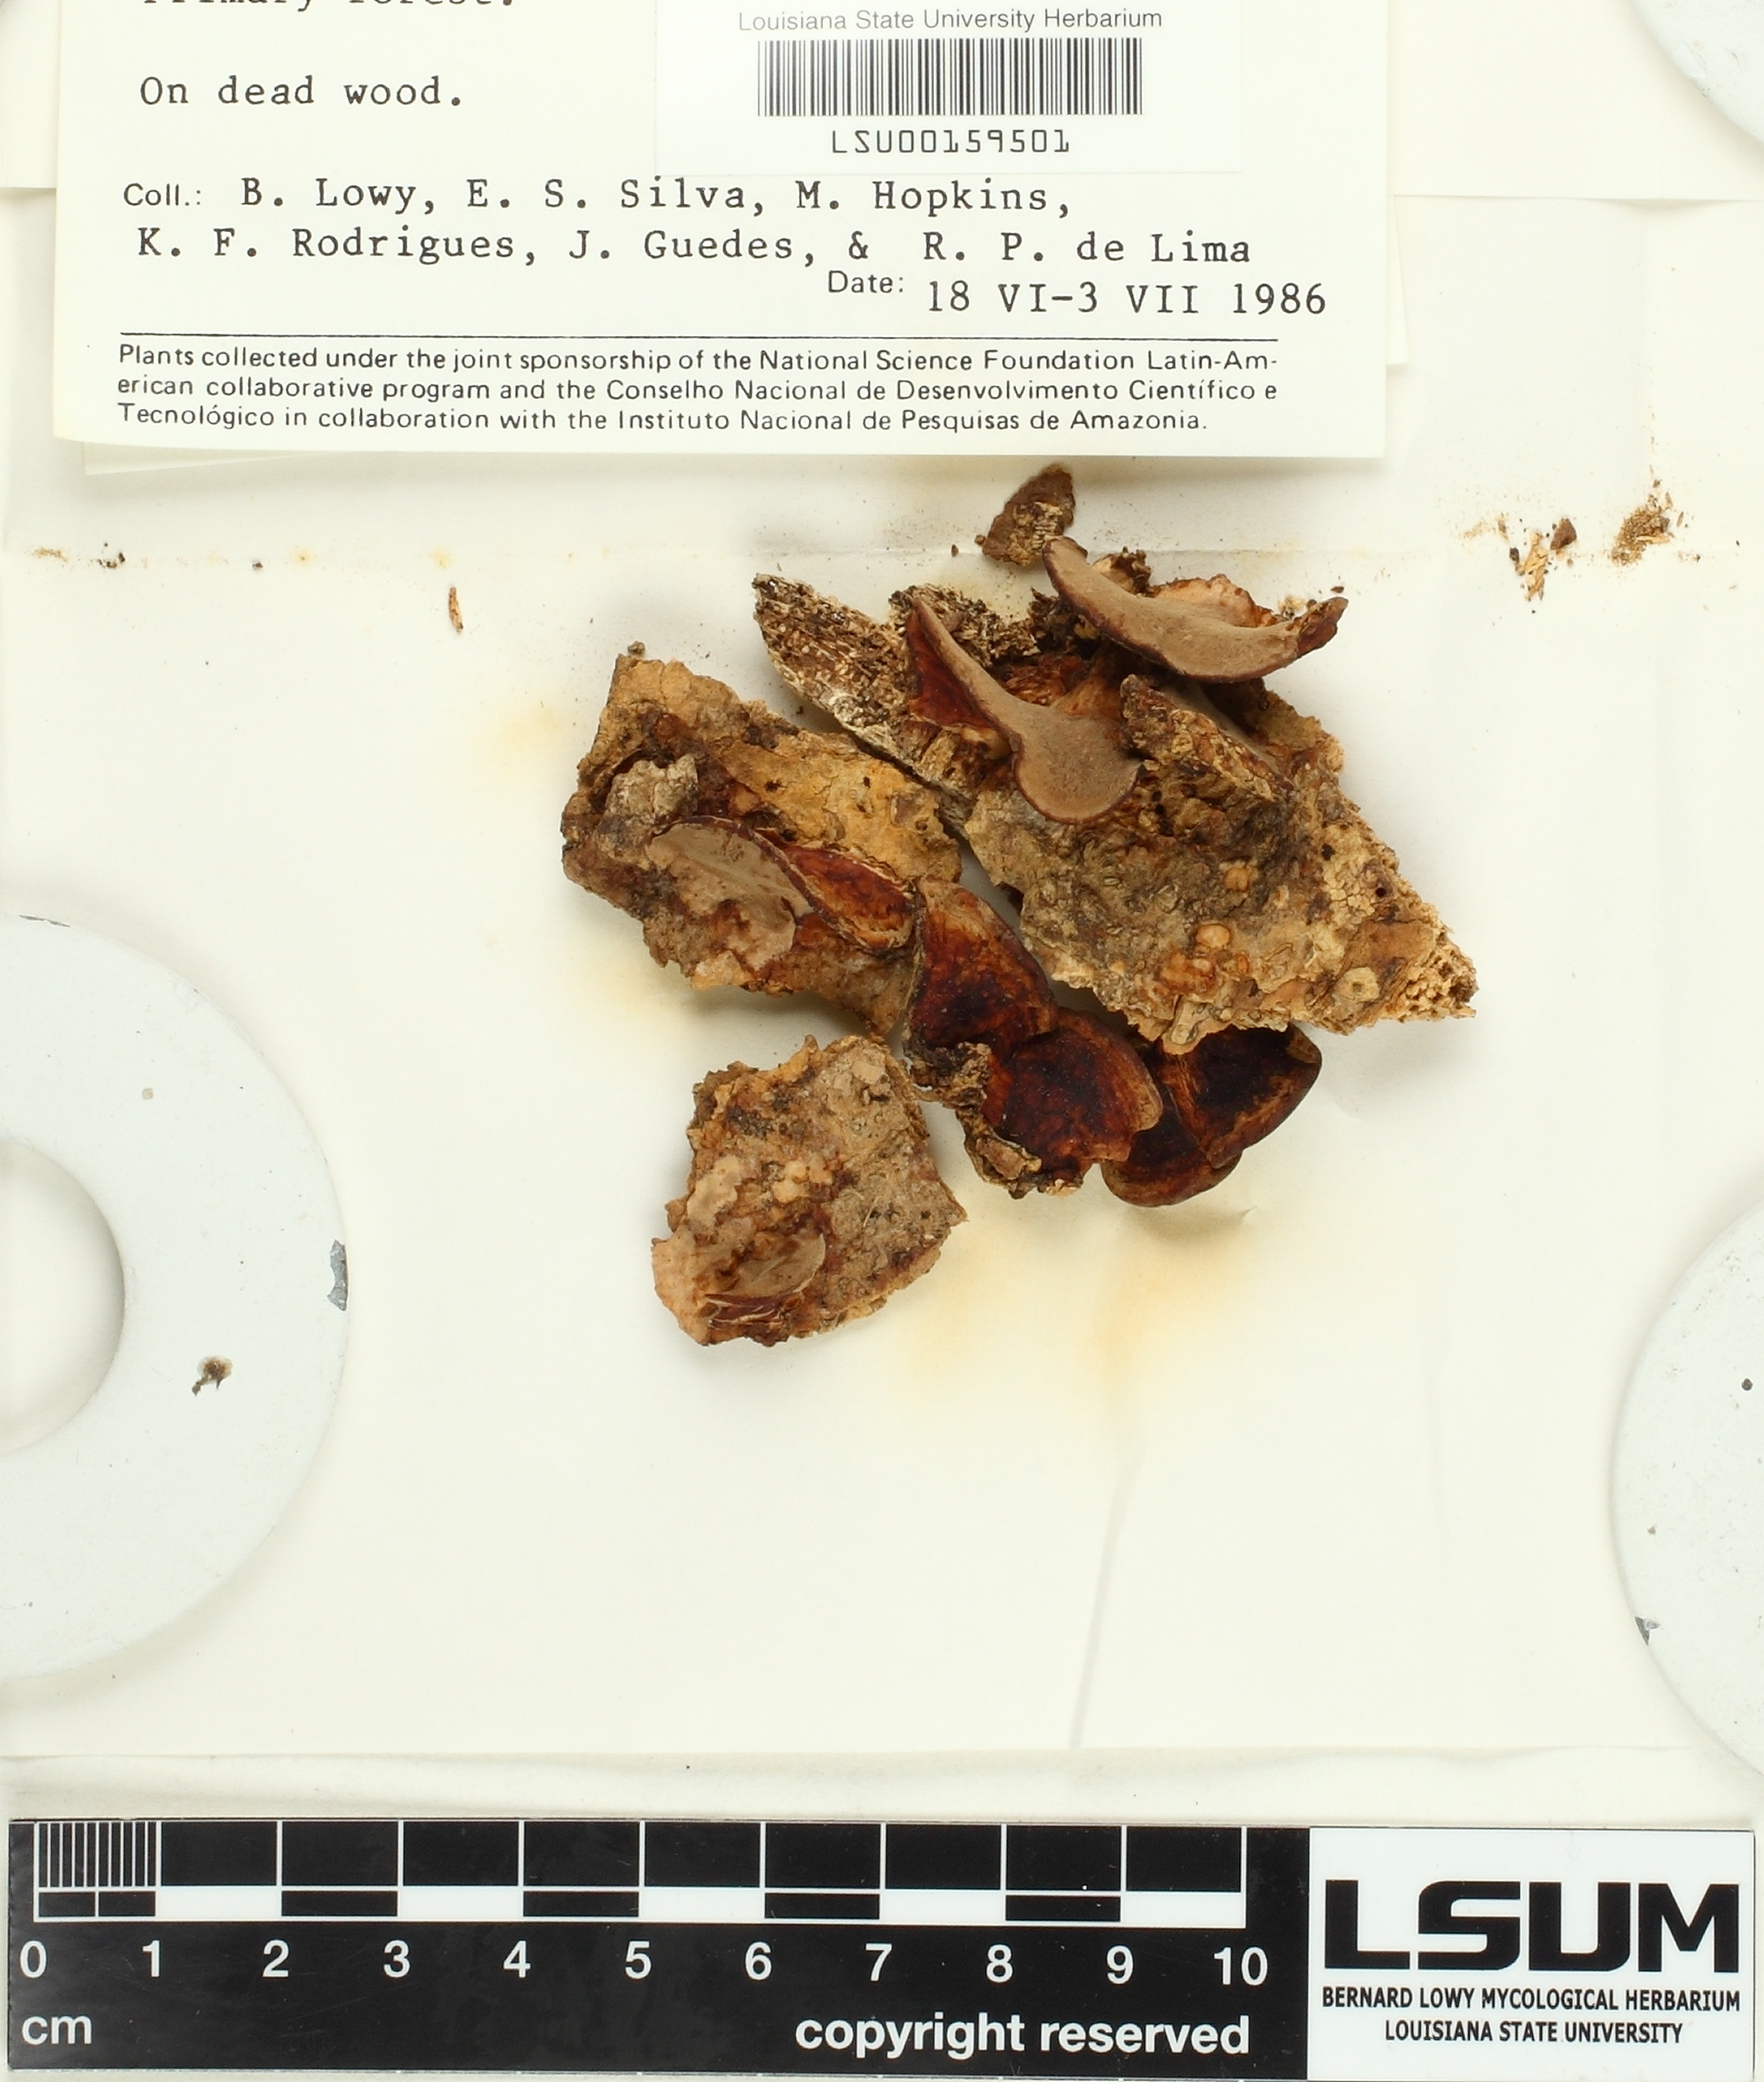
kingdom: Fungi
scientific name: Fungi
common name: Fungi
